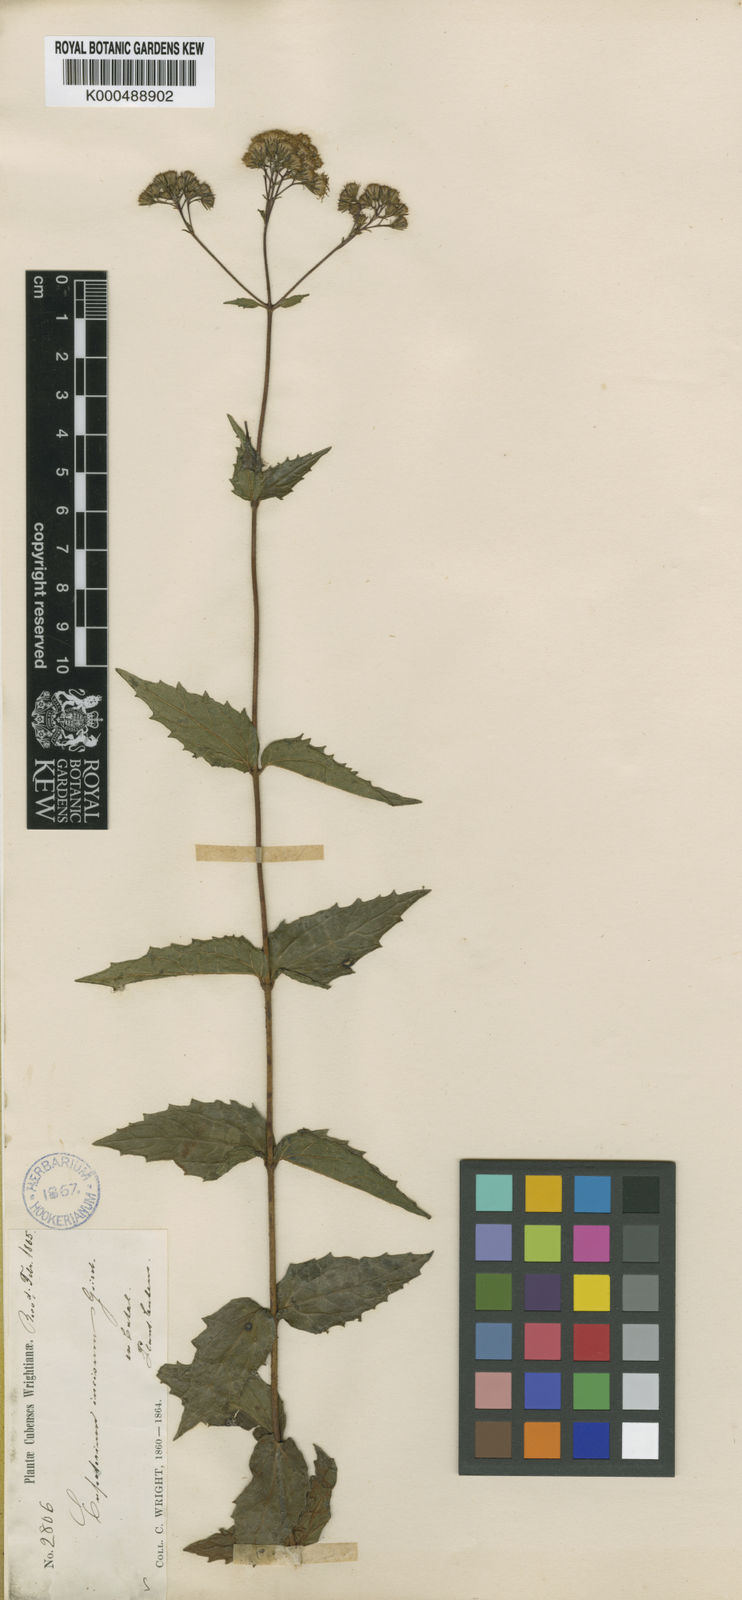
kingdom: Plantae
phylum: Tracheophyta
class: Magnoliopsida
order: Asterales
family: Asteraceae
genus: Koanophyllon
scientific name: Koanophyllon grisebachianum
